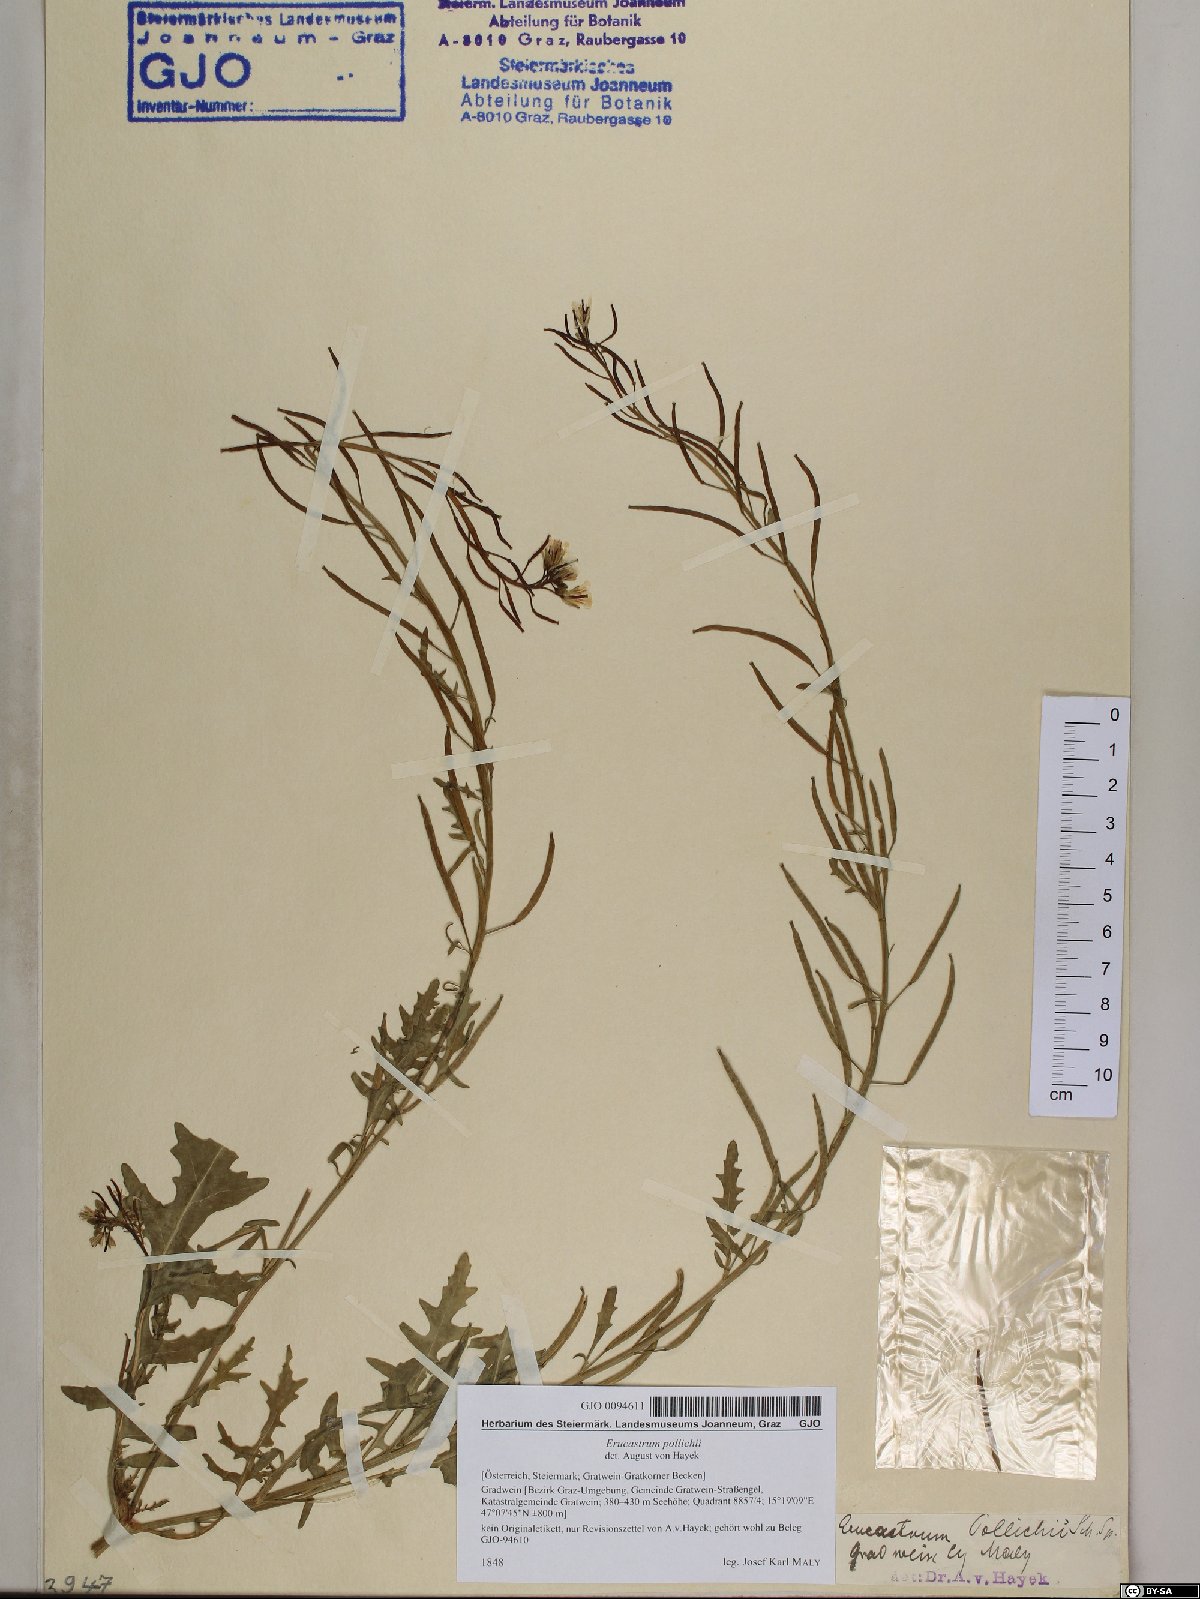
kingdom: Plantae
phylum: Tracheophyta
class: Magnoliopsida
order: Brassicales
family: Brassicaceae
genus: Erucastrum
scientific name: Erucastrum gallicum
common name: Hairy rocket
